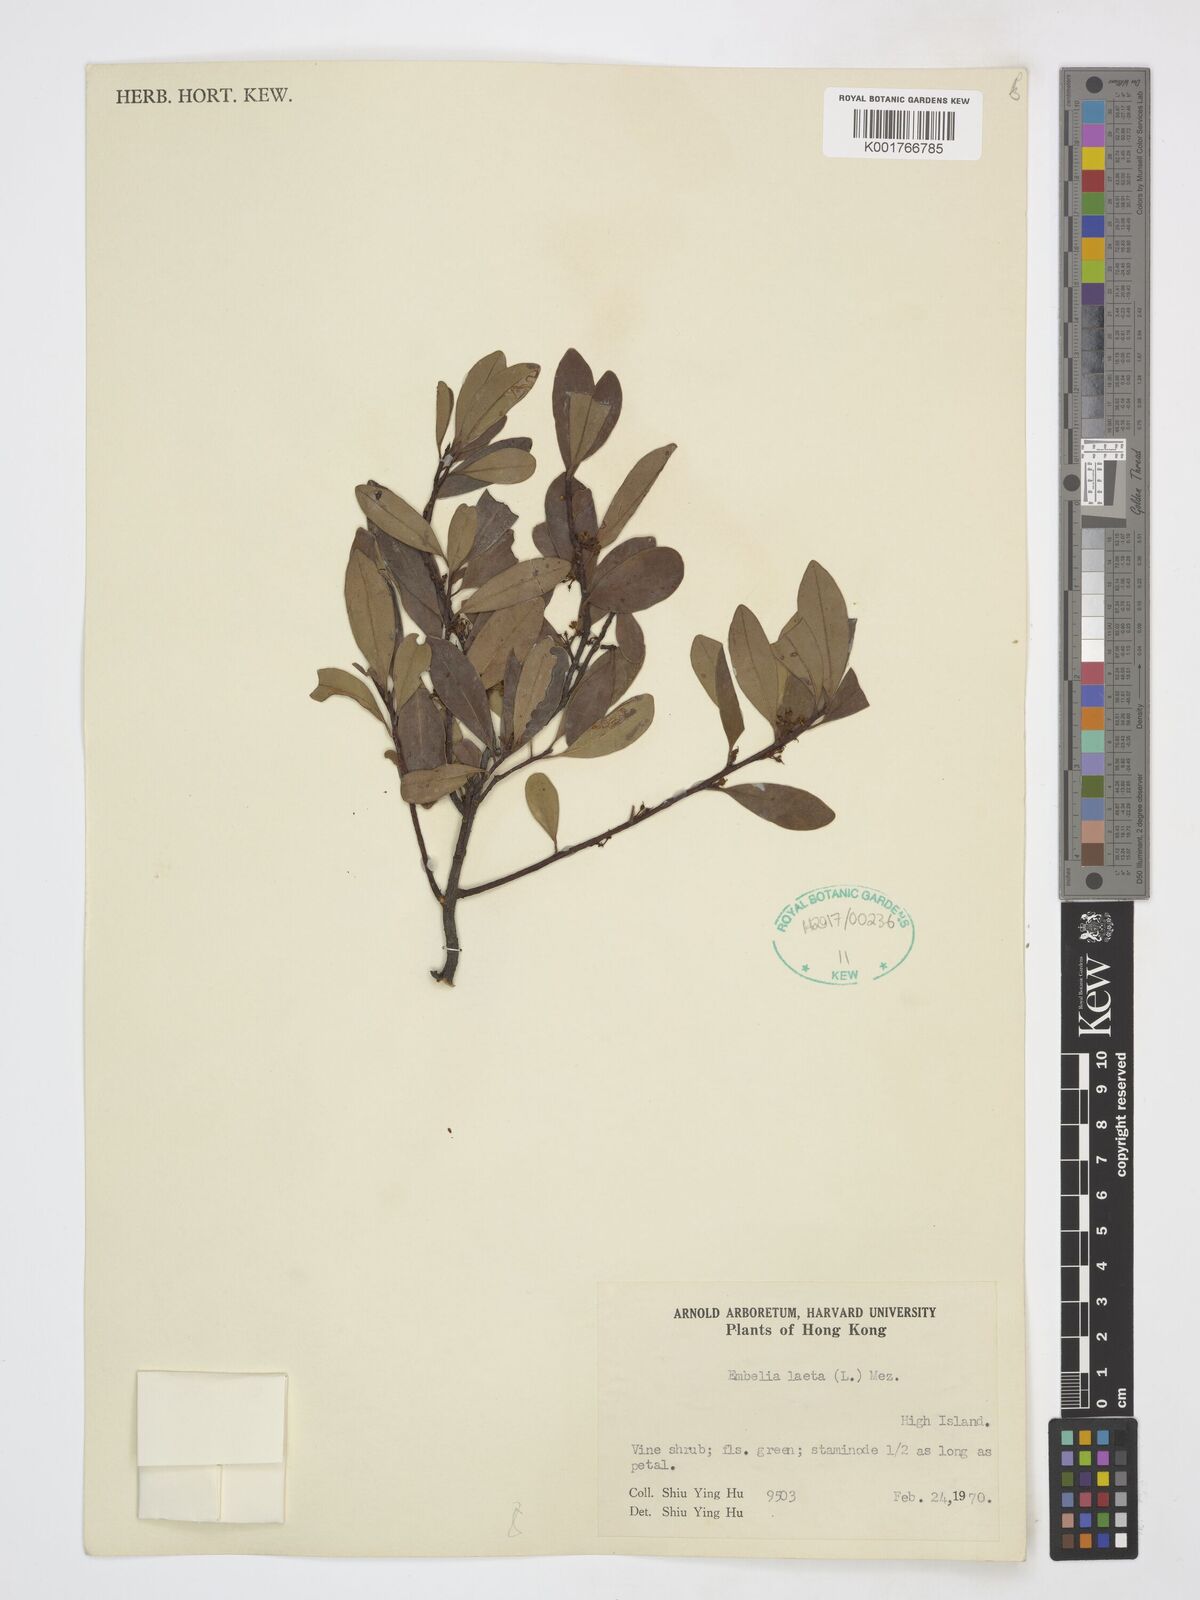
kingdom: Plantae
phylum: Tracheophyta
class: Magnoliopsida
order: Ericales
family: Primulaceae
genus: Embelia
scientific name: Embelia laeta
